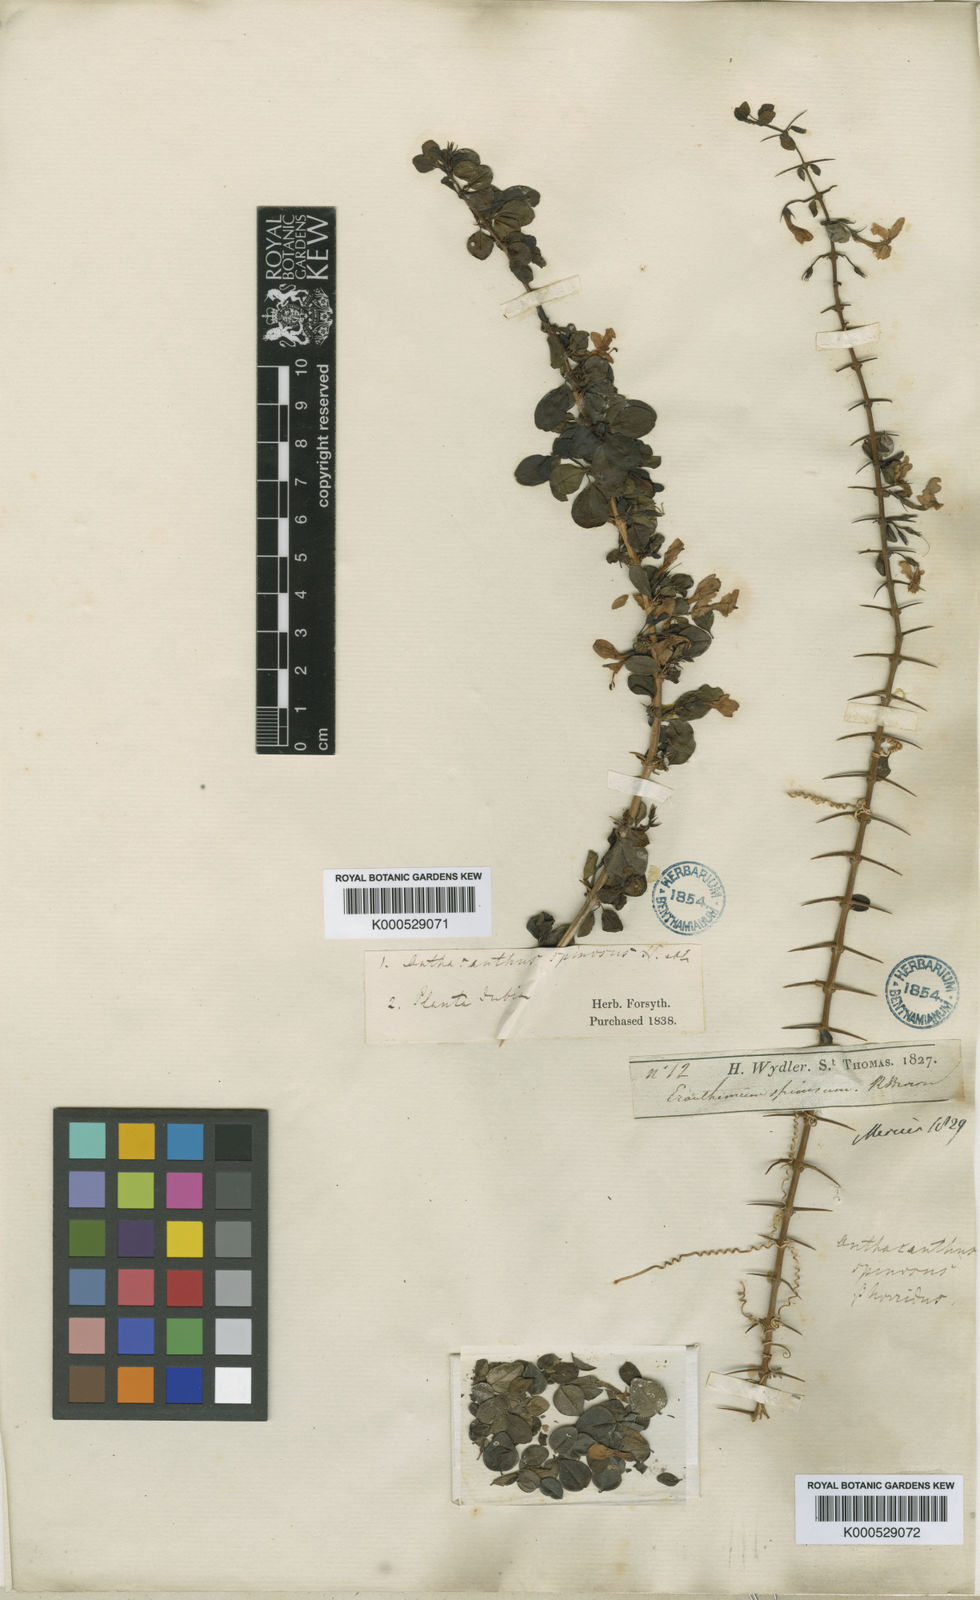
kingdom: Plantae
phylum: Tracheophyta
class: Magnoliopsida
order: Lamiales
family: Acanthaceae
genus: Oplonia
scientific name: Oplonia spinosa
